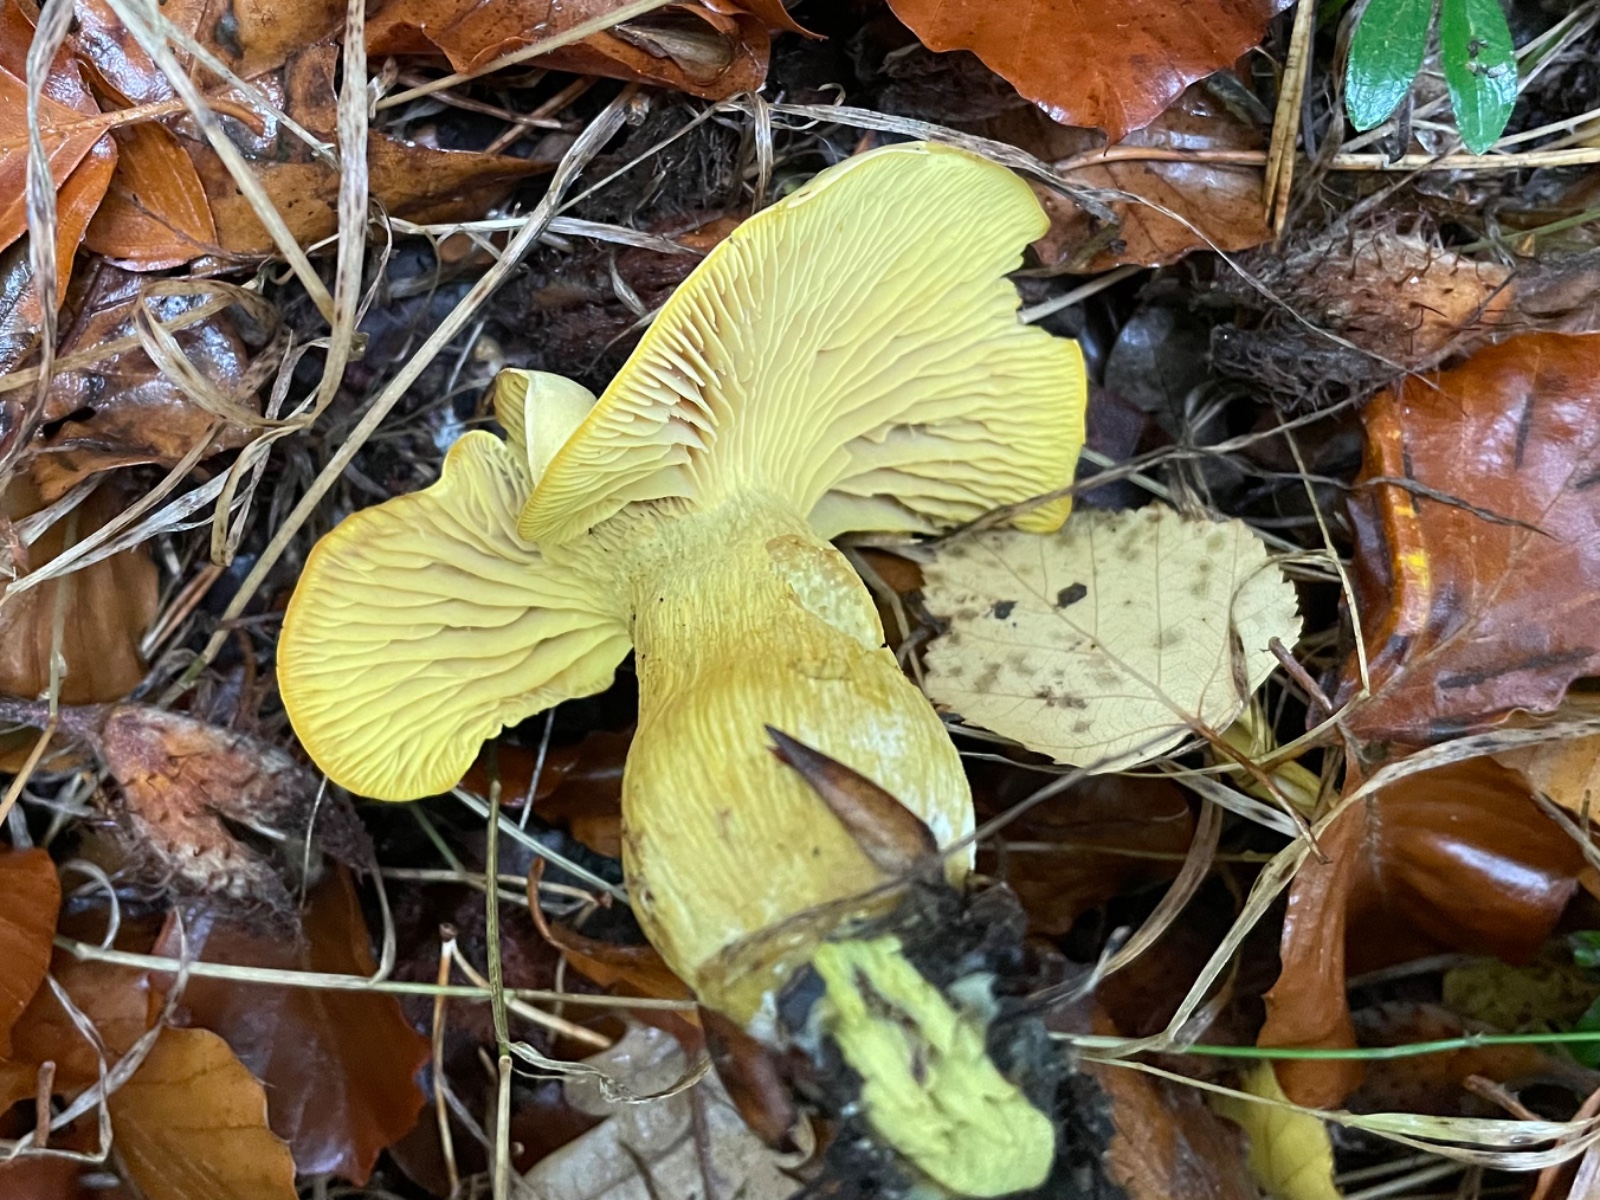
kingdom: Fungi
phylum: Basidiomycota
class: Agaricomycetes
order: Agaricales
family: Tricholomataceae
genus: Tricholoma
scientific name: Tricholoma sulphureum
